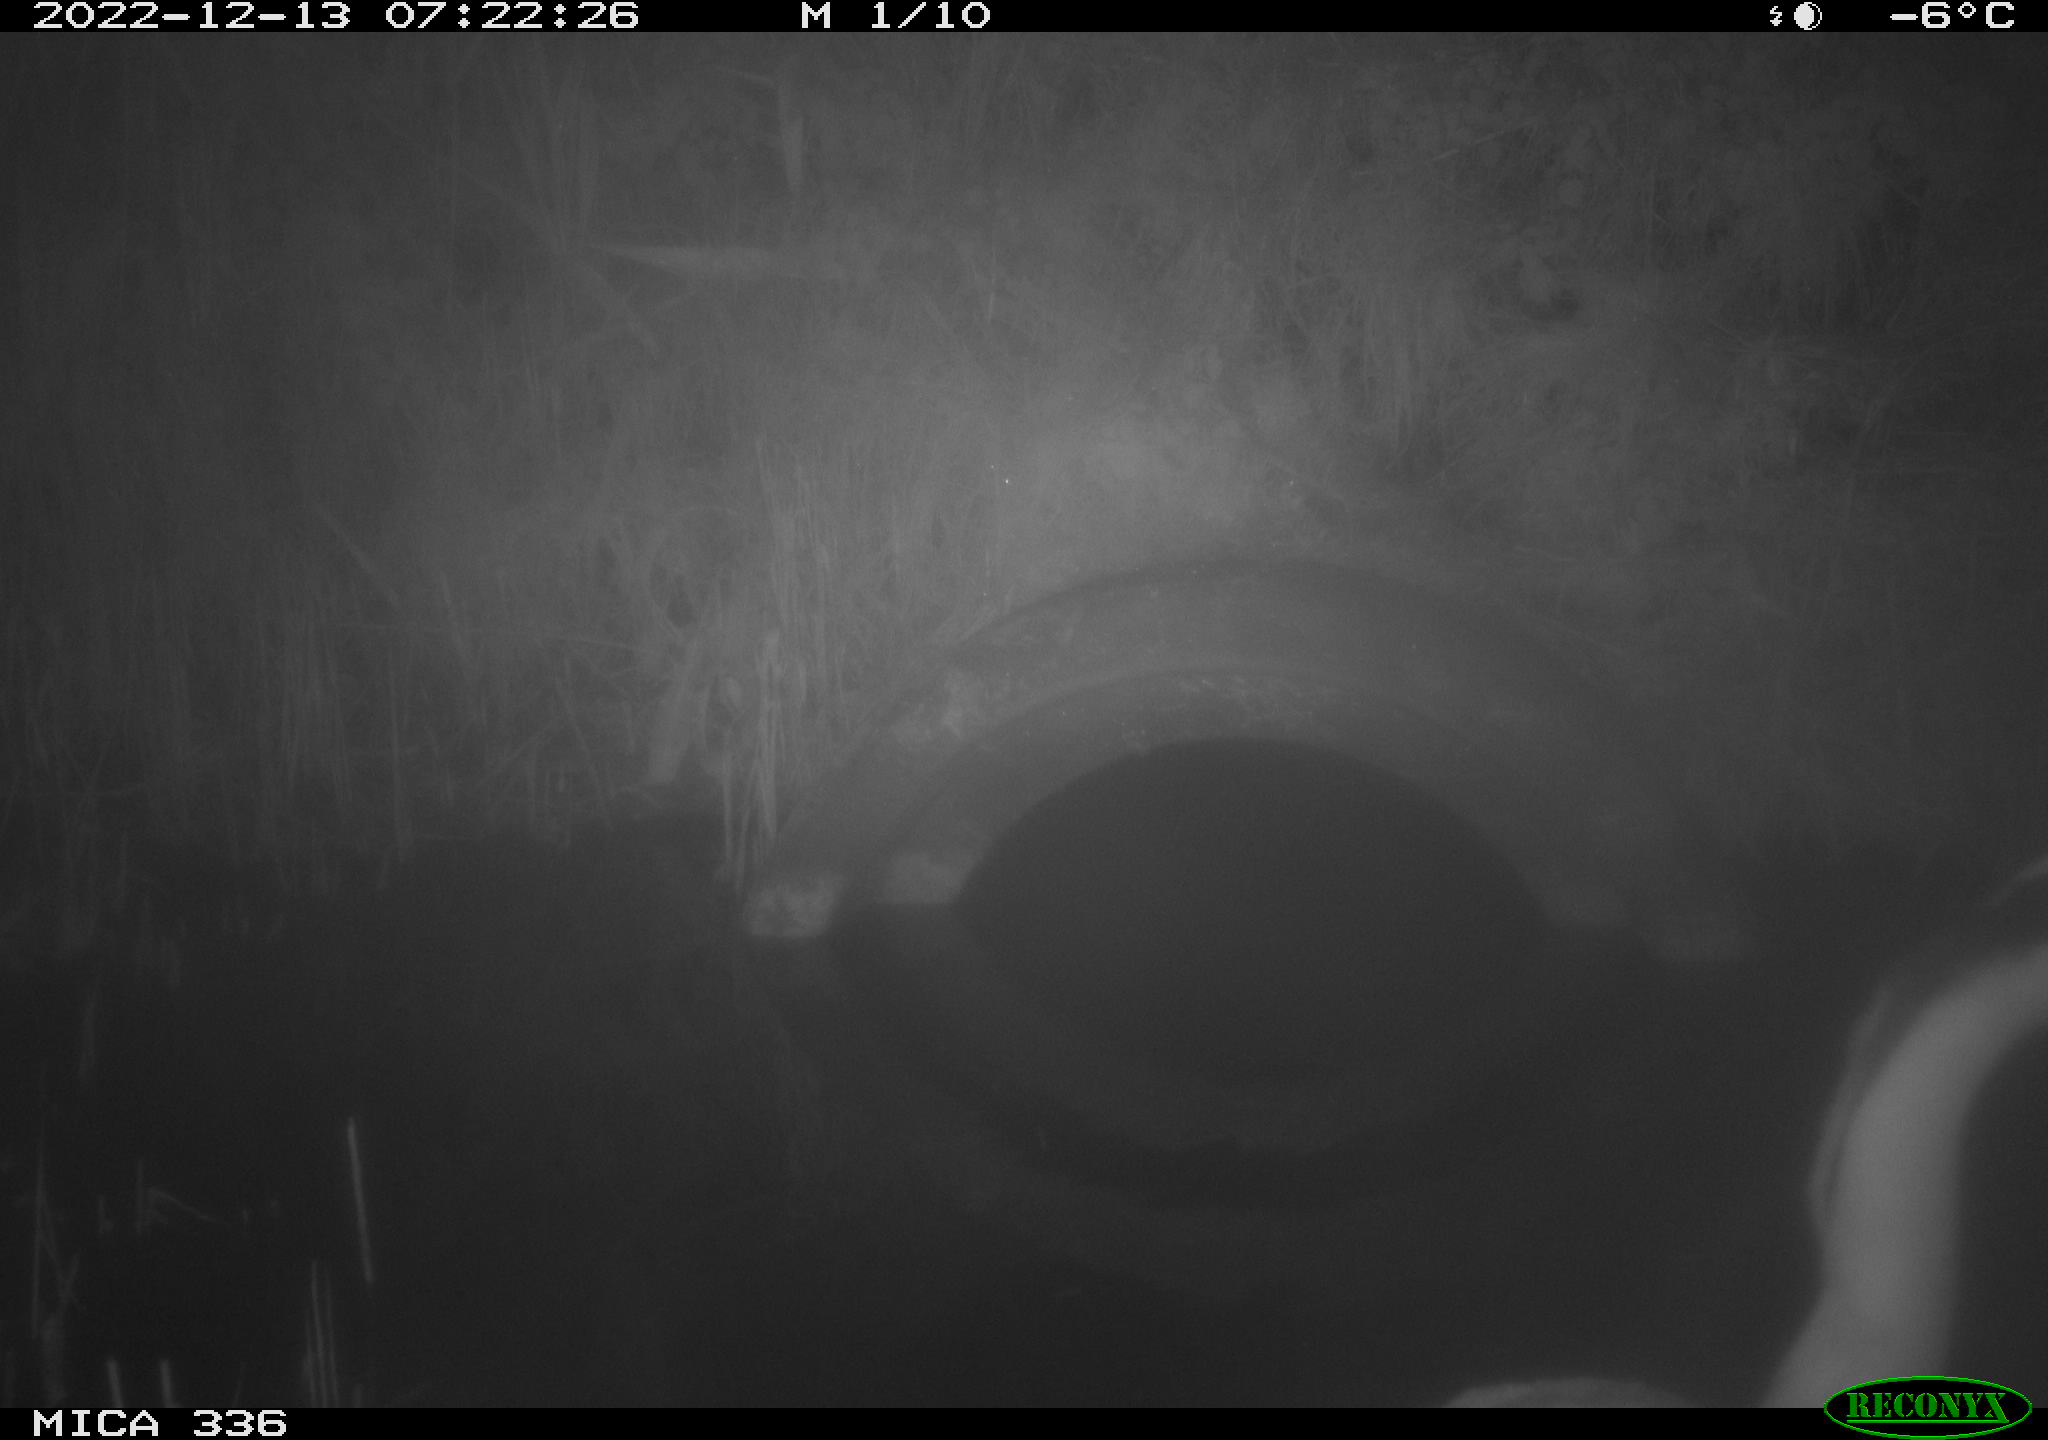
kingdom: Animalia
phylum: Chordata
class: Aves
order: Pelecaniformes
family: Ardeidae
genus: Ardea
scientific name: Ardea cinerea
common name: Grey heron
